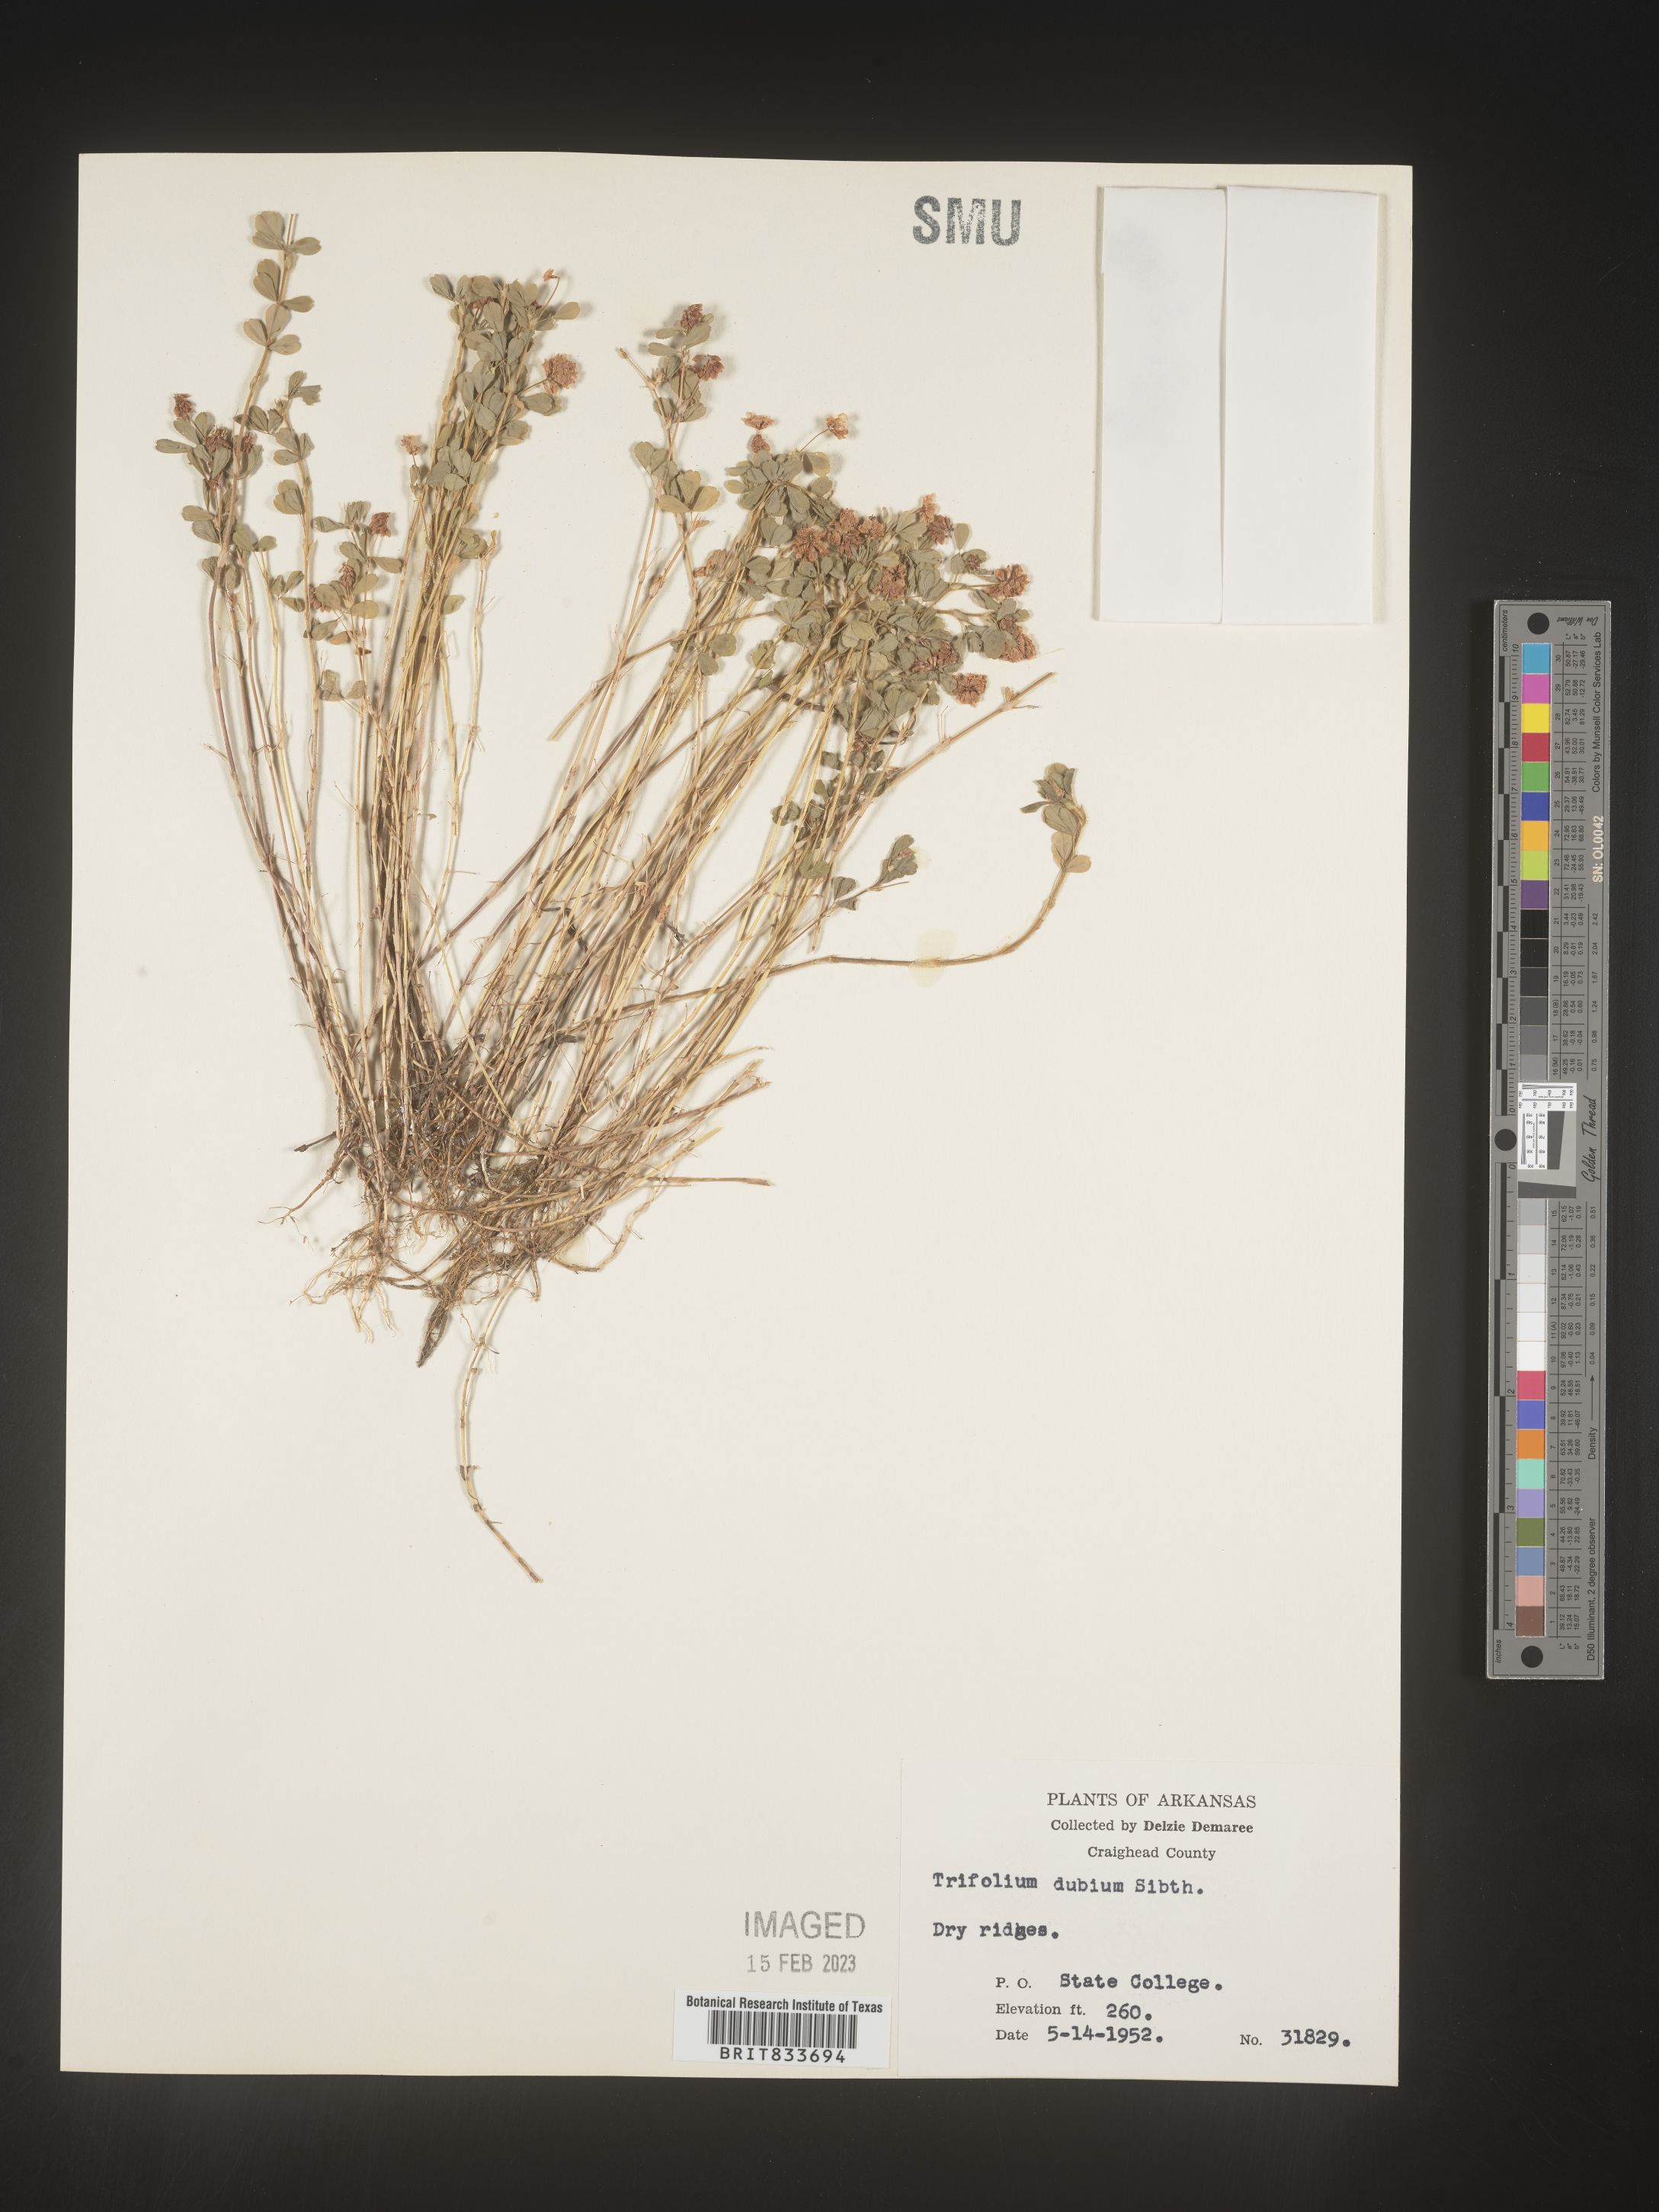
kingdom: Plantae
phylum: Tracheophyta
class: Magnoliopsida
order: Fabales
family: Fabaceae
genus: Trifolium
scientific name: Trifolium dubium
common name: Suckling clover
